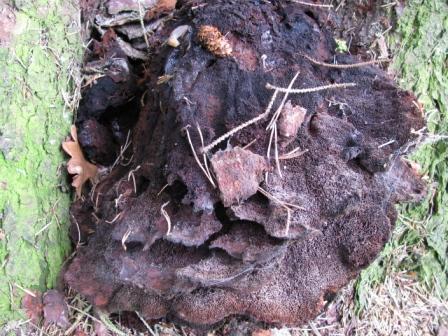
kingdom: Fungi
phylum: Basidiomycota
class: Agaricomycetes
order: Polyporales
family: Ischnodermataceae
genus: Ischnoderma
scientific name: Ischnoderma benzoinum
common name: gran-tjæreporesvamp
